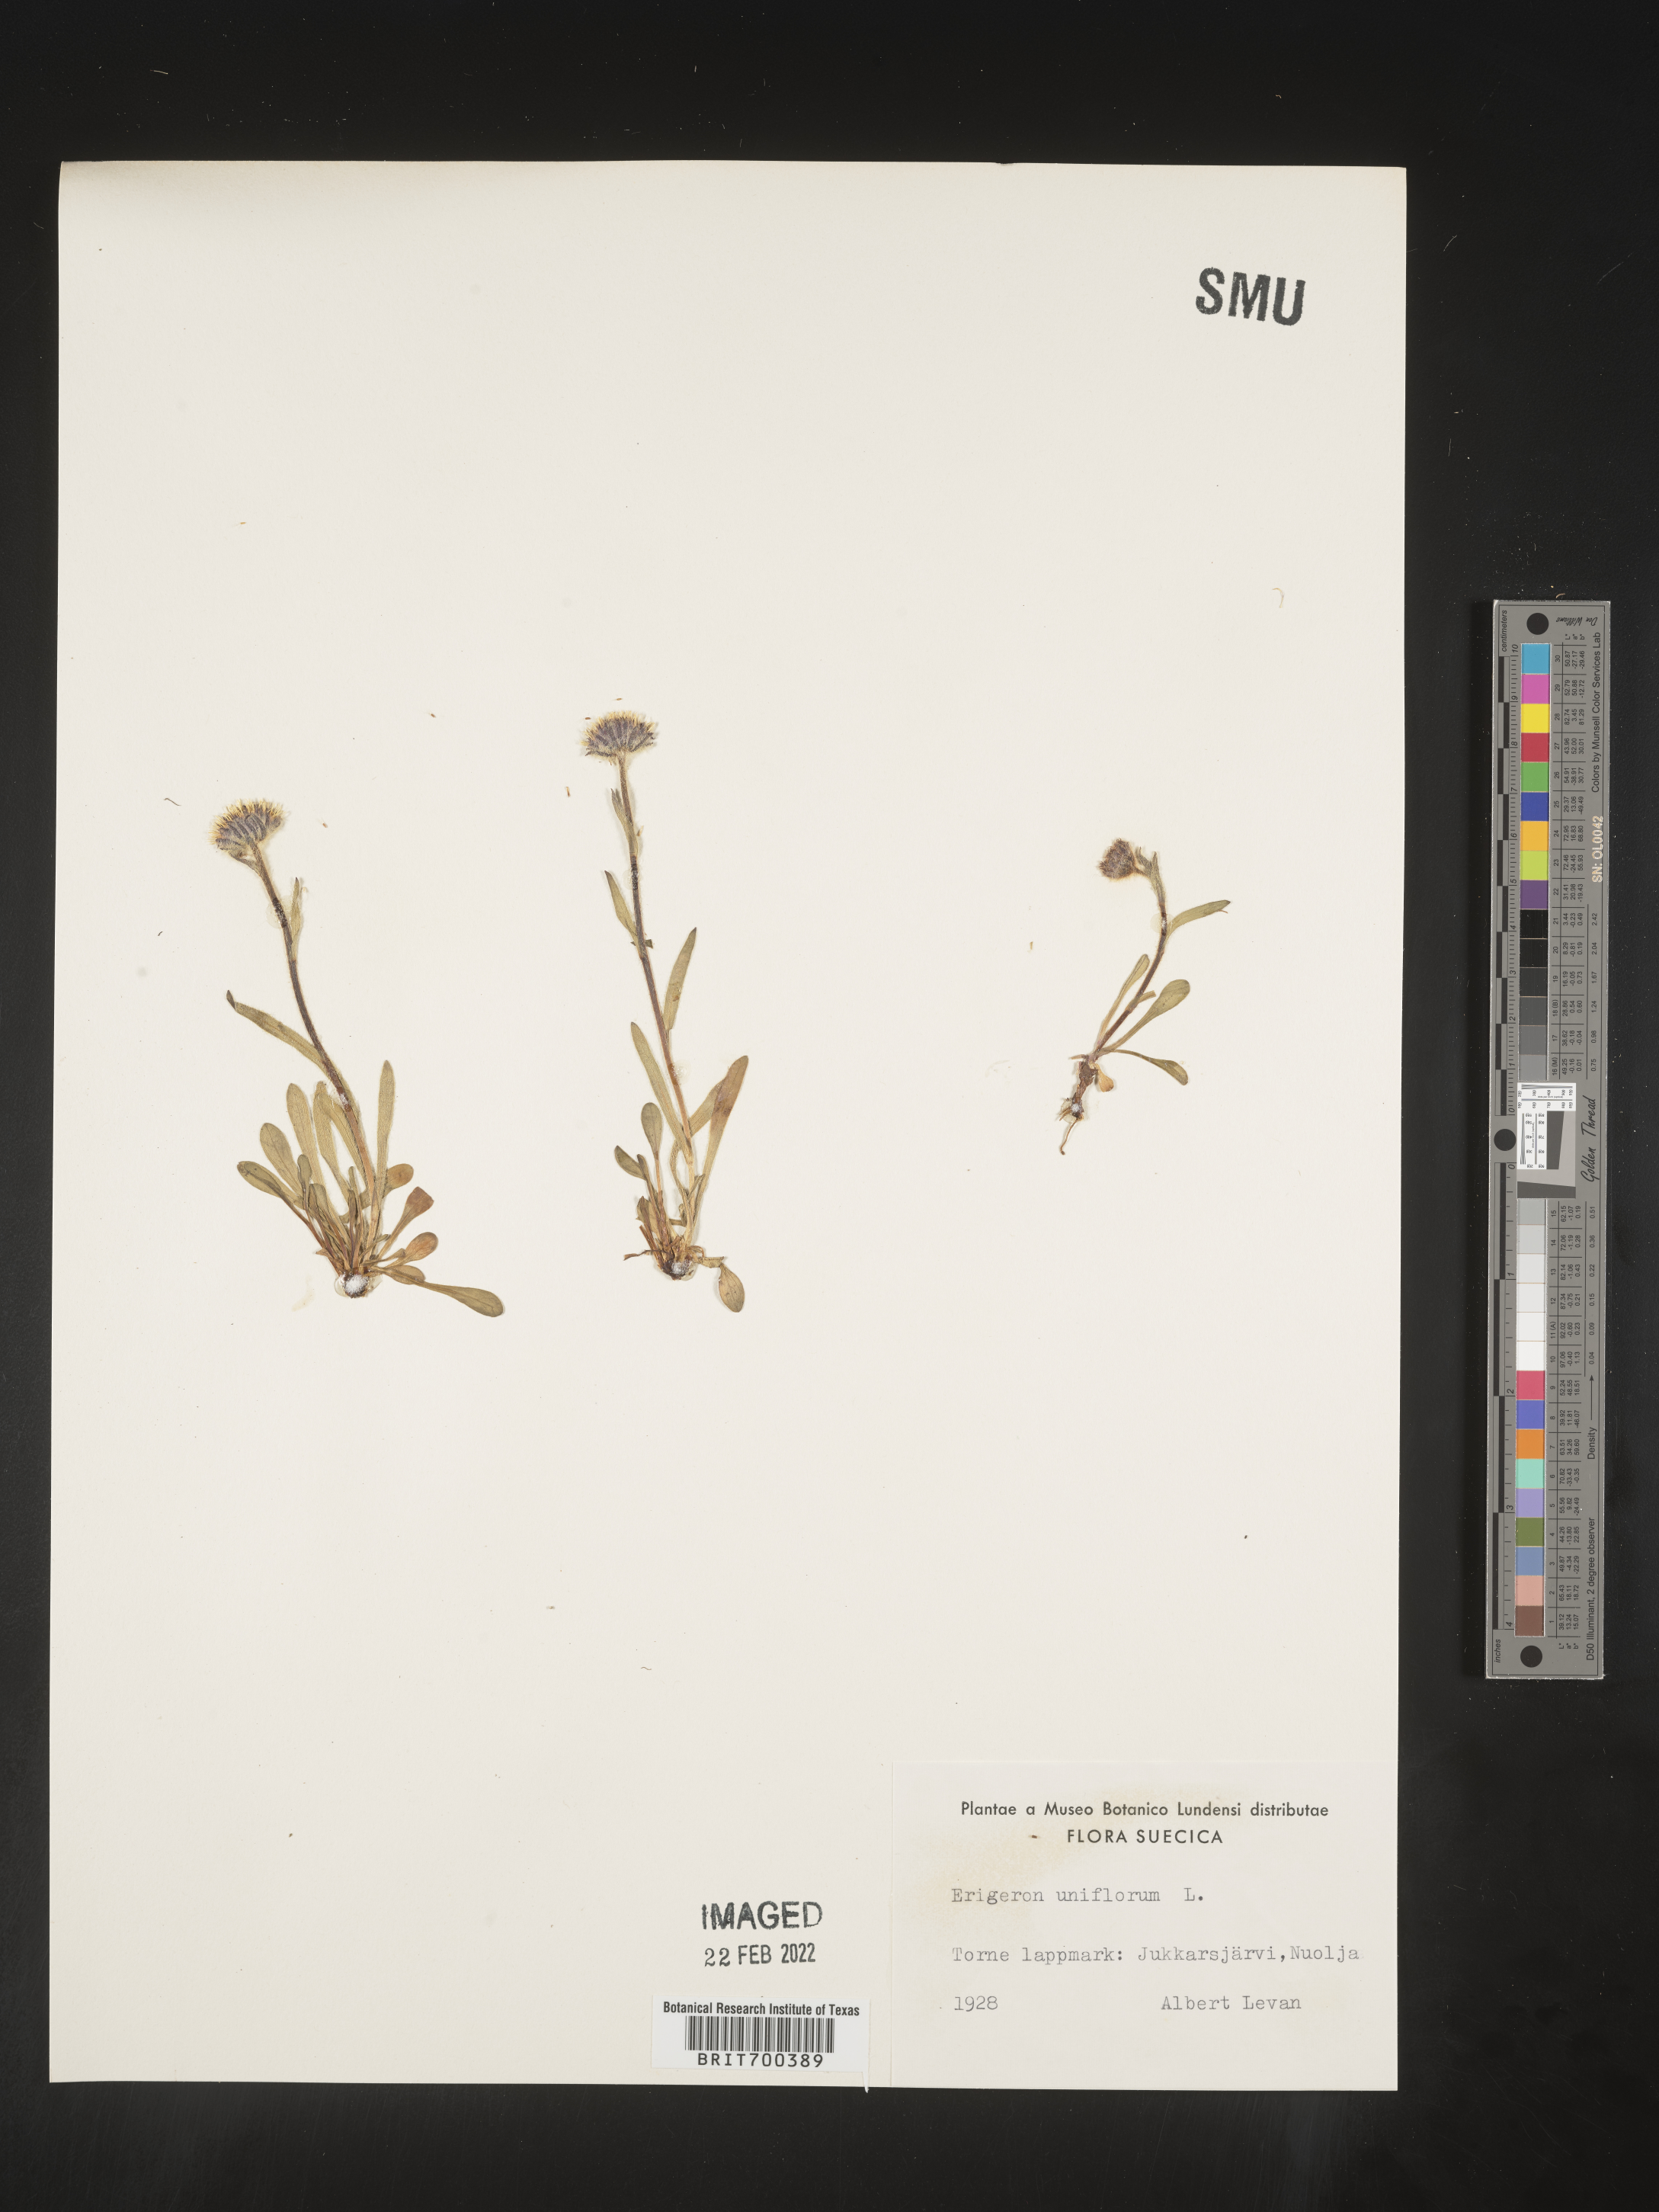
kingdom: Plantae
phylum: Tracheophyta
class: Magnoliopsida
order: Asterales
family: Asteraceae
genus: Erigeron
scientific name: Erigeron
